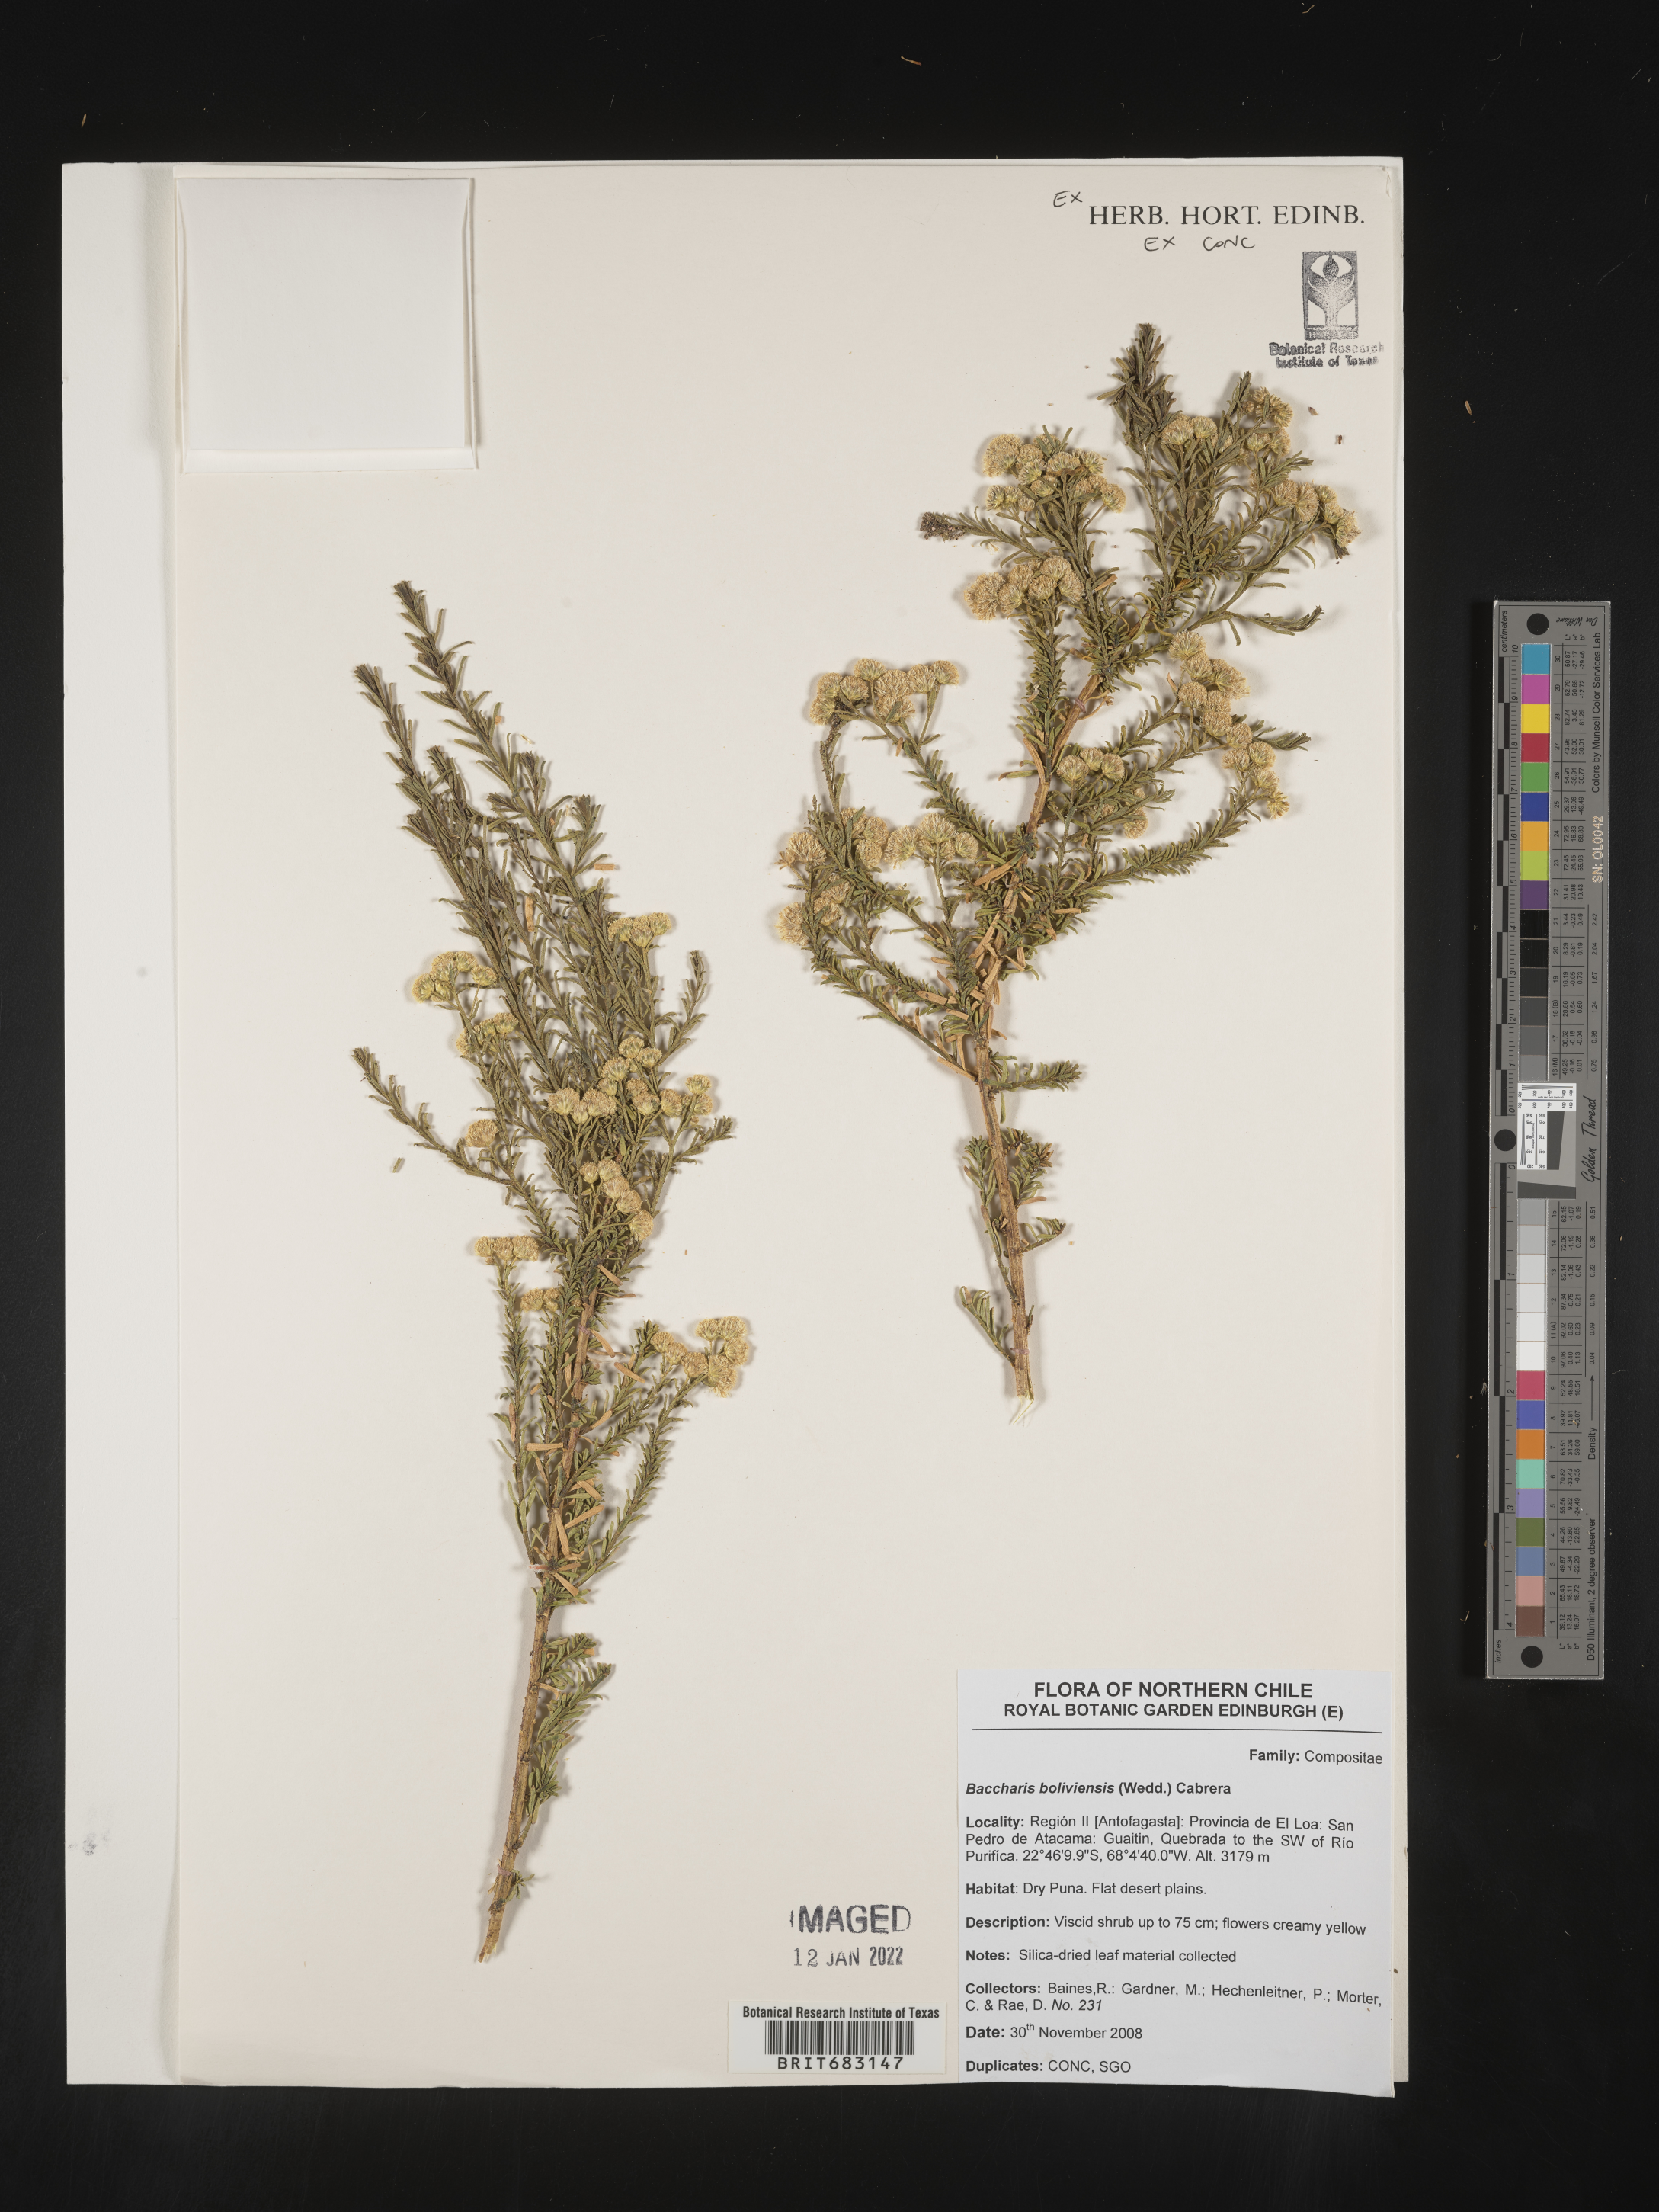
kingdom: Plantae
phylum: Tracheophyta
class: Magnoliopsida
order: Asterales
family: Asteraceae
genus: Baccharis
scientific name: Baccharis
